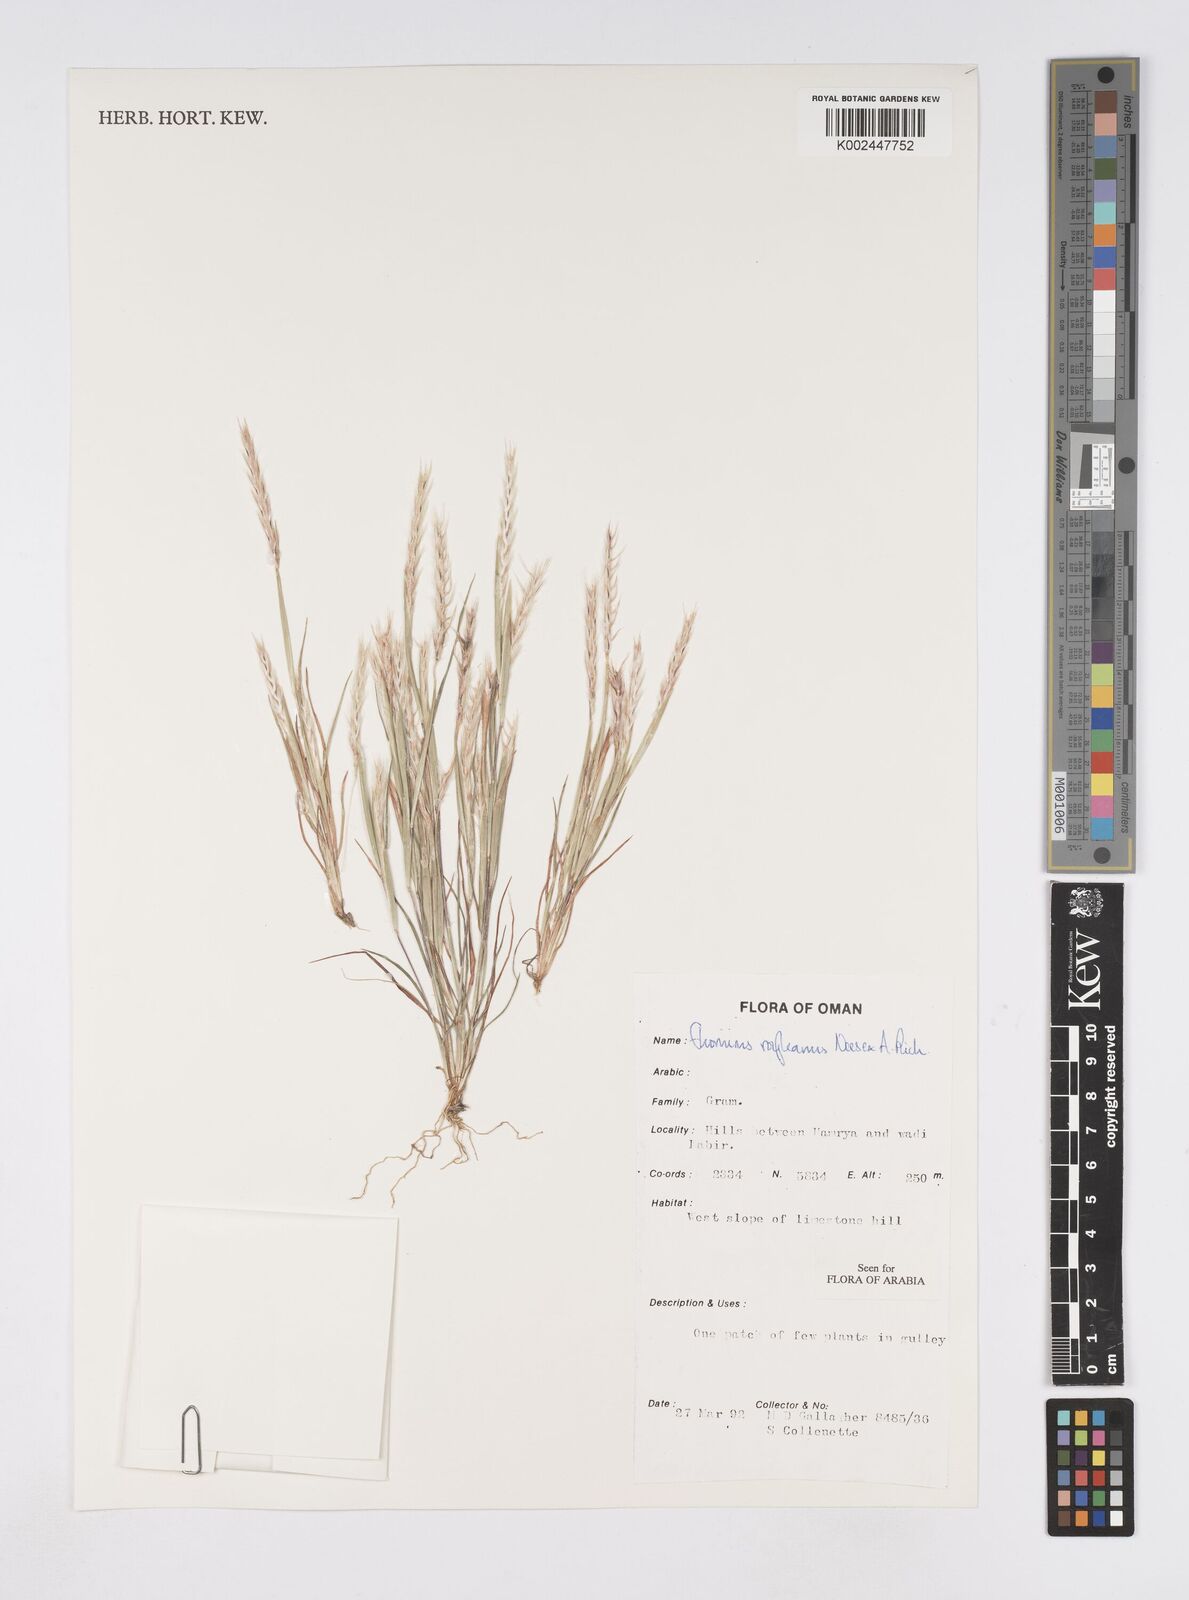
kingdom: Plantae
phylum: Tracheophyta
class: Liliopsida
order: Poales
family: Poaceae
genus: Elionurus
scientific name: Elionurus royleanus
